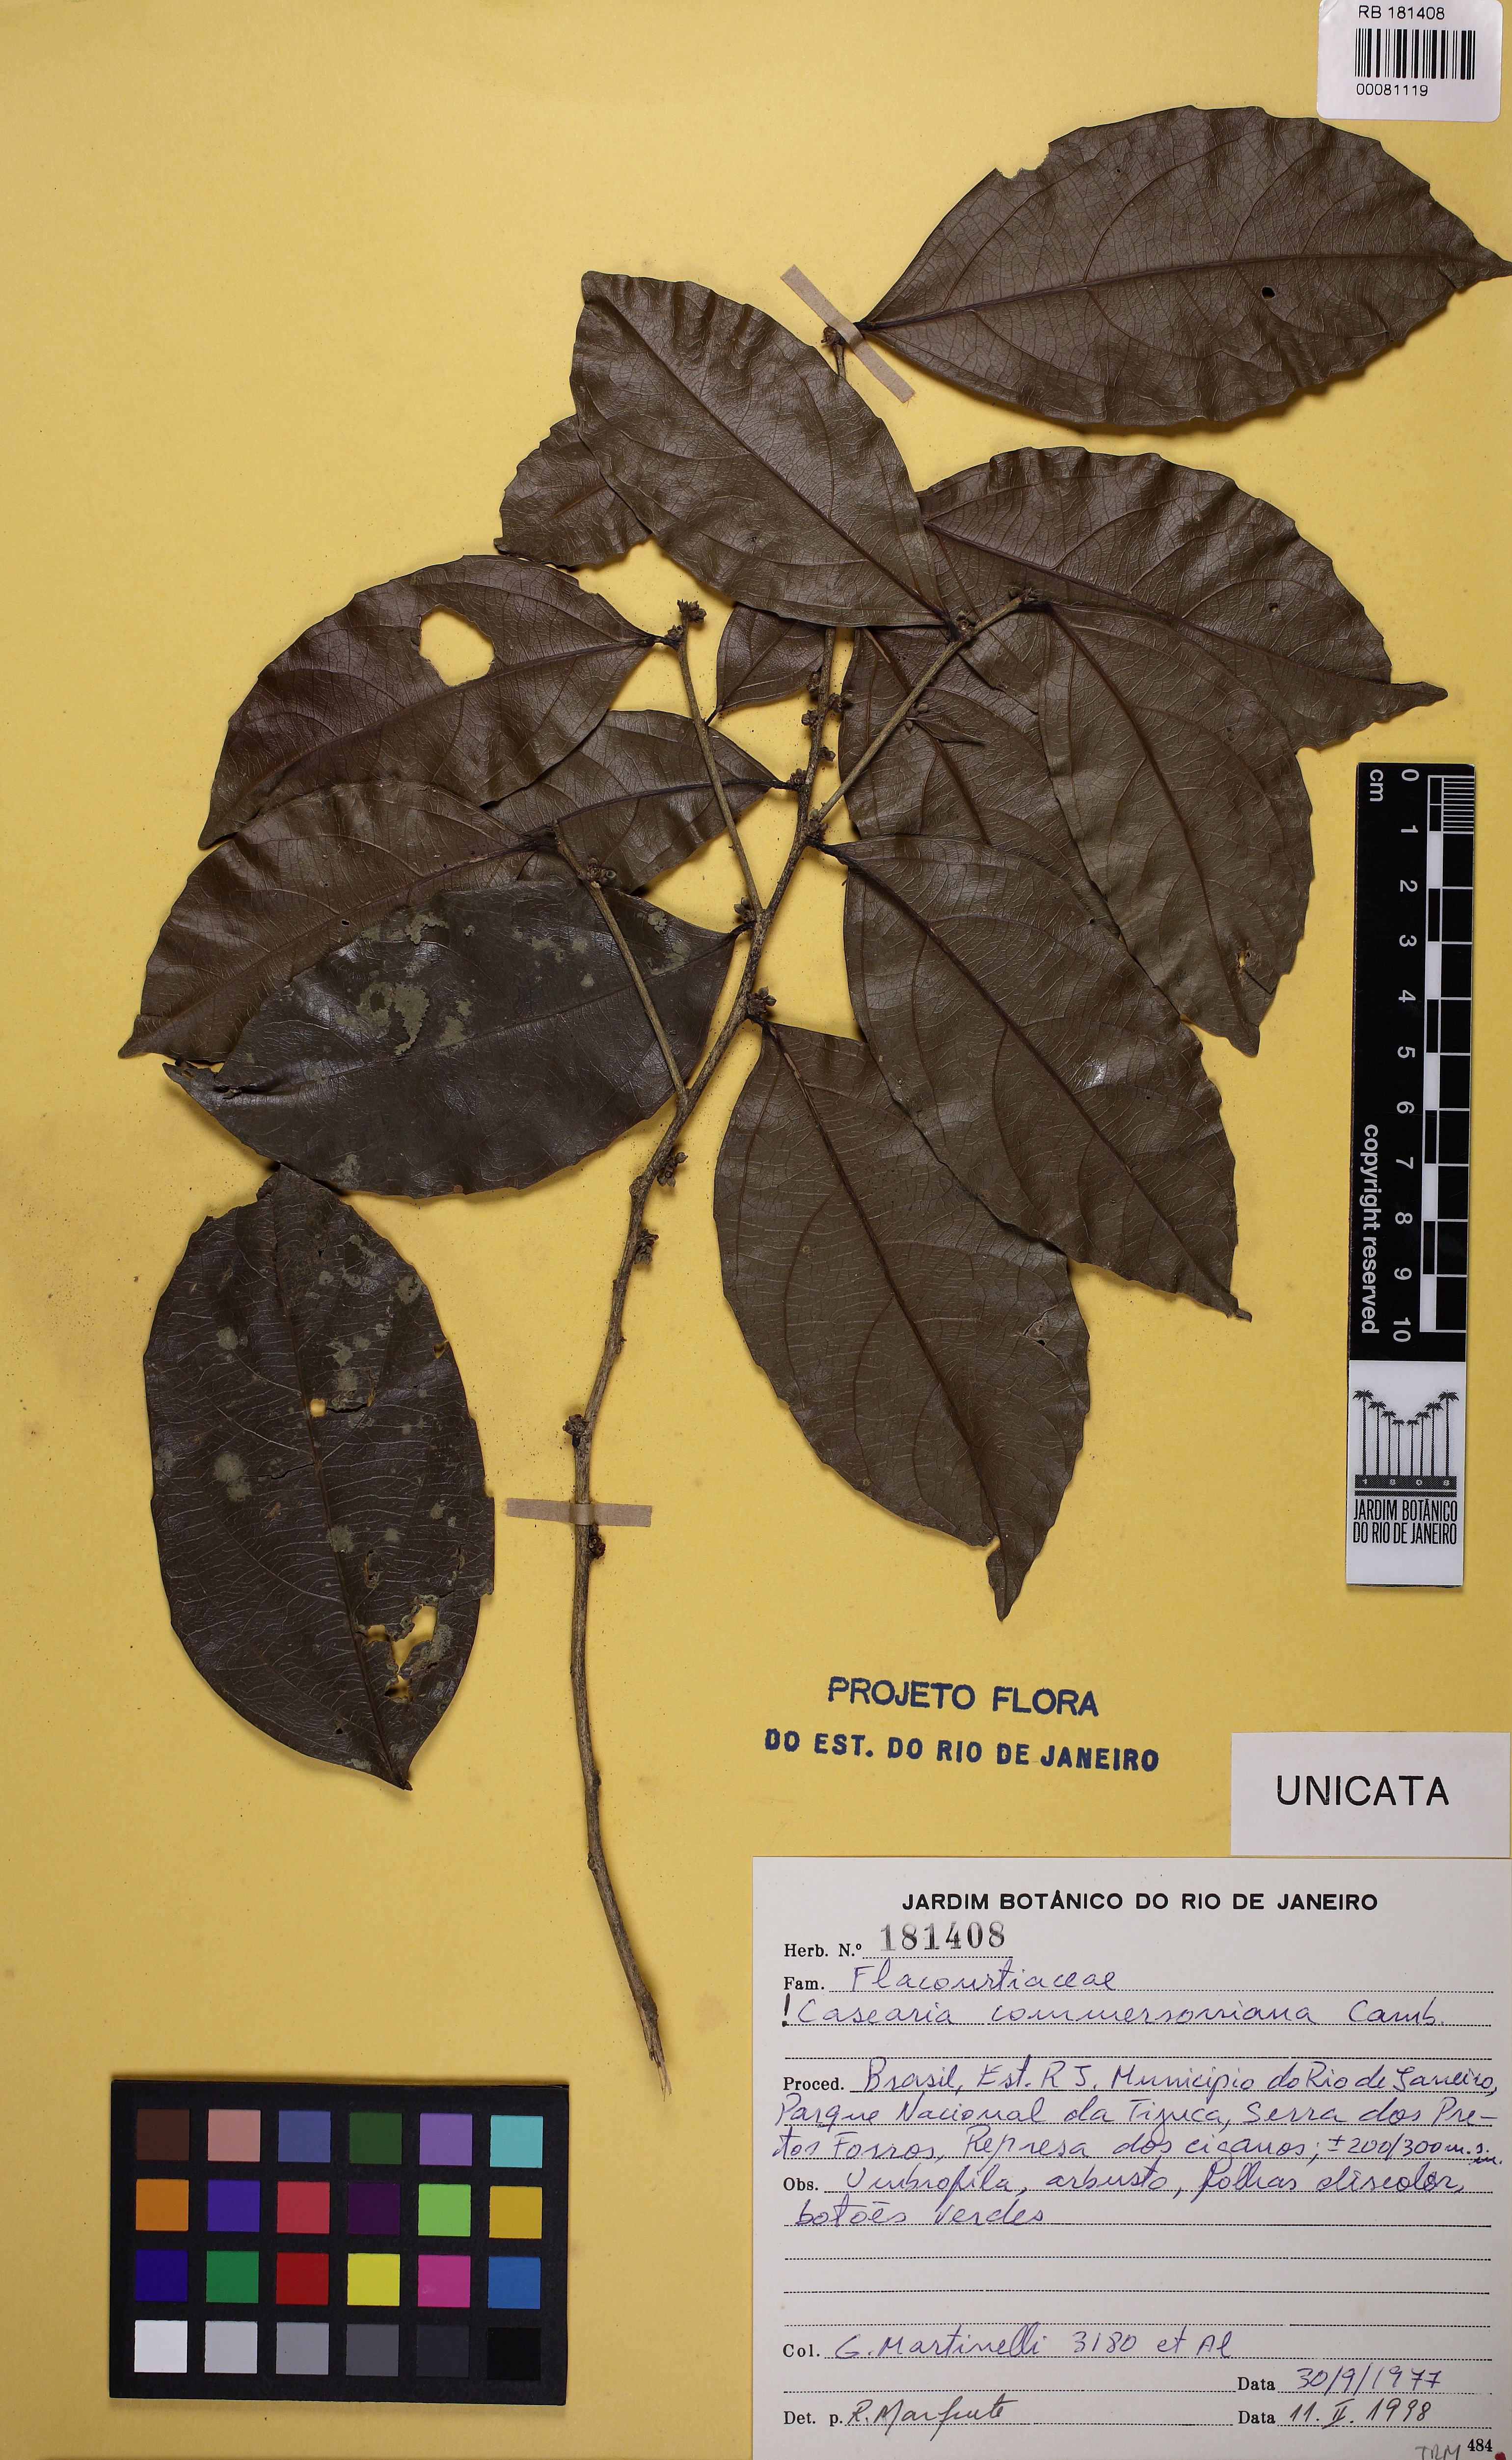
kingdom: Plantae
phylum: Tracheophyta
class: Magnoliopsida
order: Malpighiales
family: Salicaceae
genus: Piparea
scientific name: Piparea dentata
